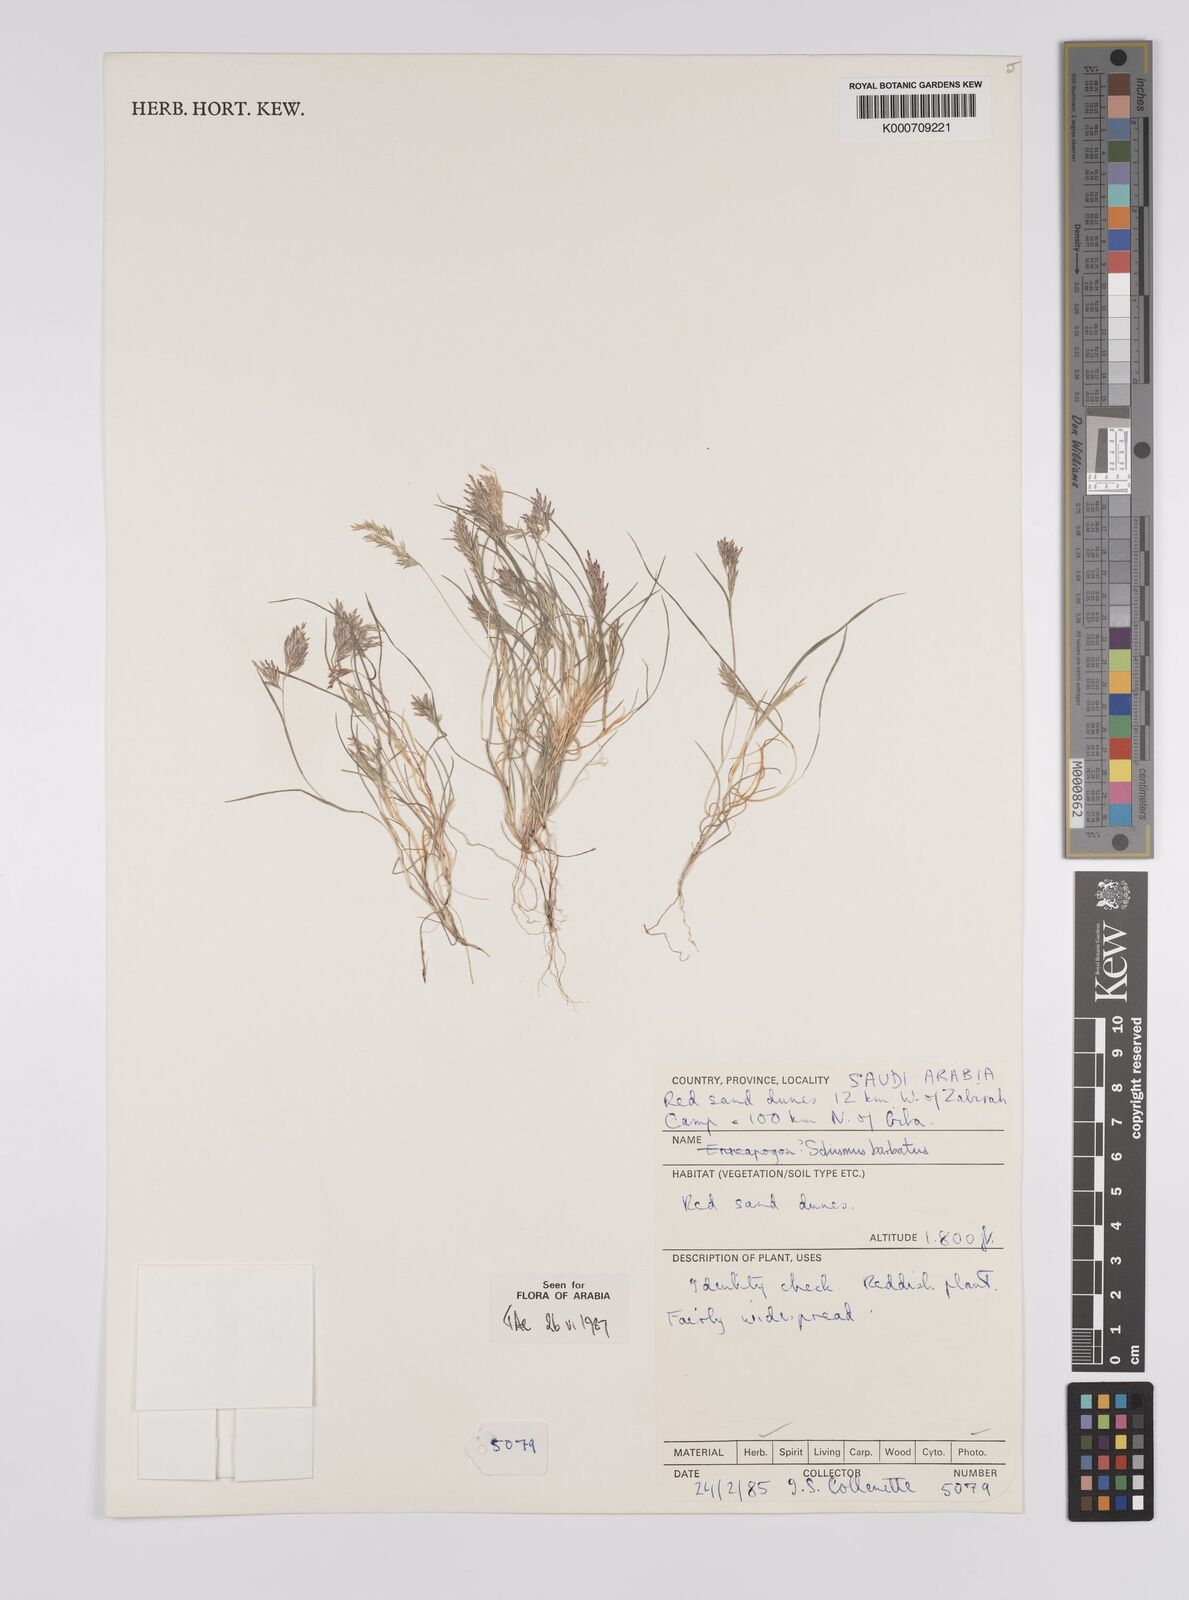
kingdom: Plantae
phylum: Tracheophyta
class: Liliopsida
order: Poales
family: Poaceae
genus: Schismus
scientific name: Schismus barbatus
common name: Kelch-grass
